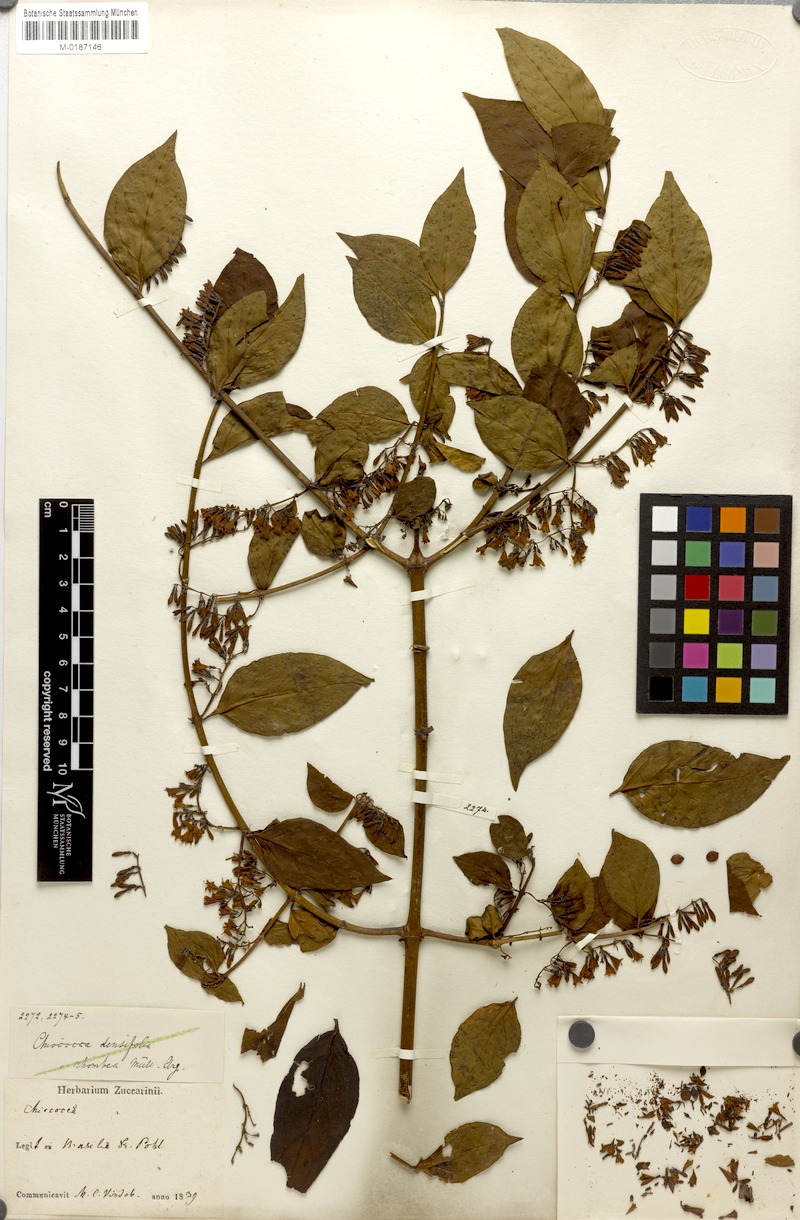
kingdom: Plantae
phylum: Tracheophyta
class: Magnoliopsida
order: Gentianales
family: Rubiaceae
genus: Chiococca
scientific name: Chiococca alba
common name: Snowberry
